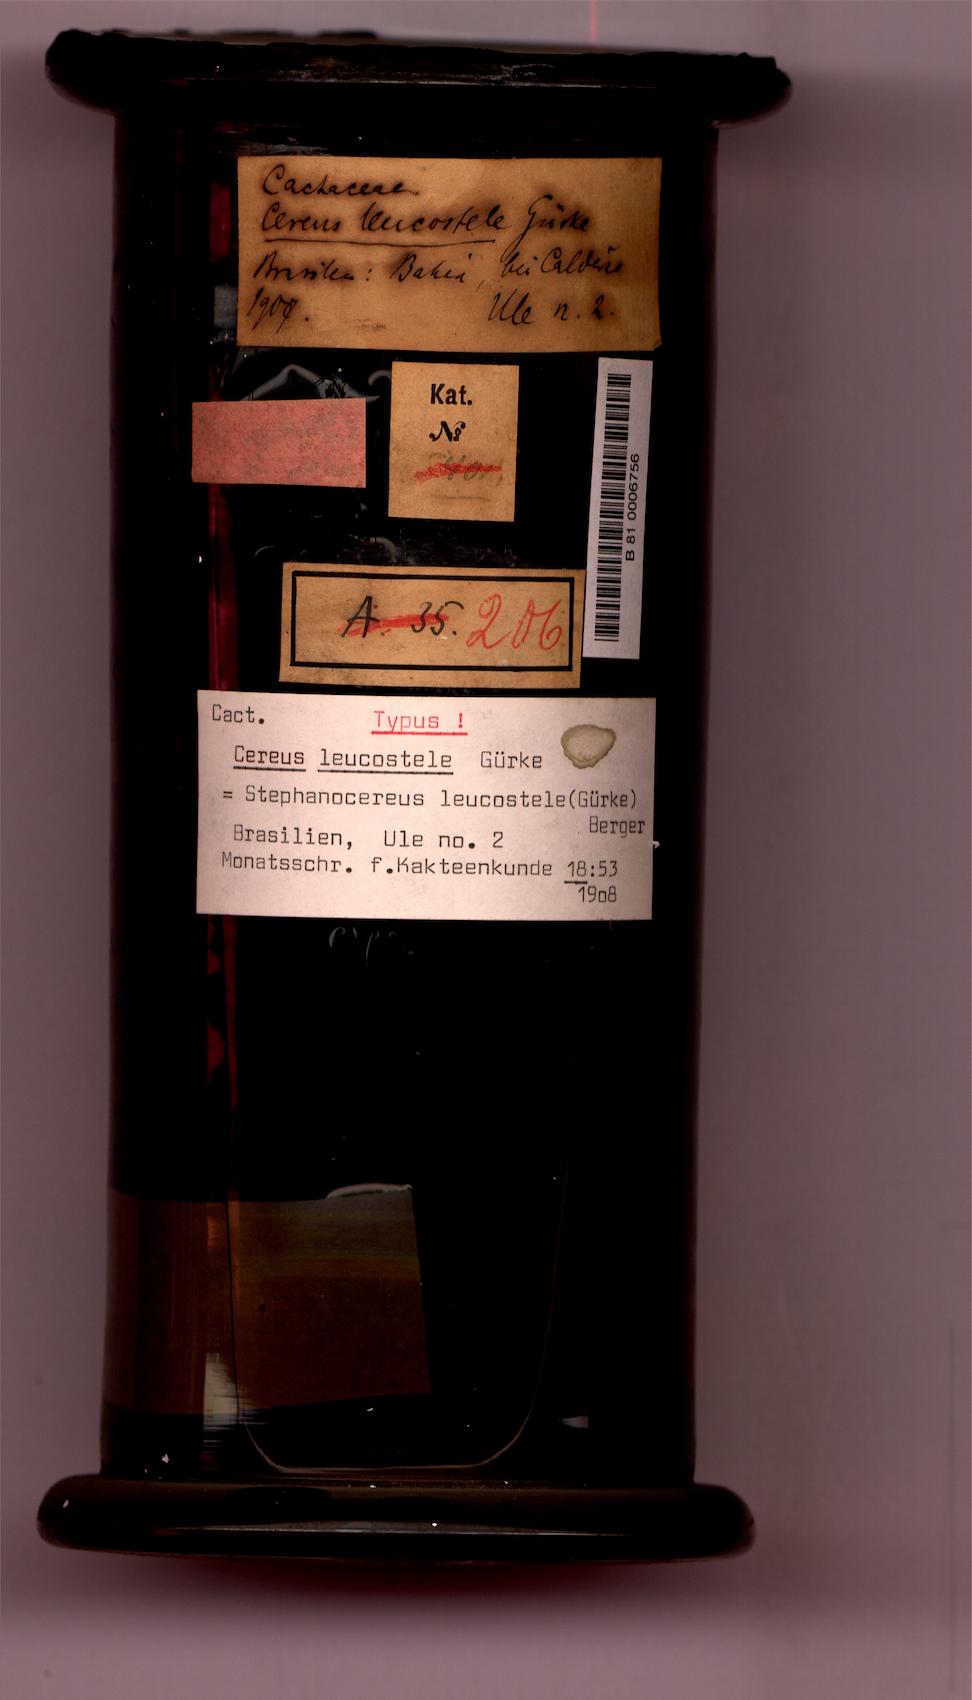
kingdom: Plantae
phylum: Tracheophyta
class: Magnoliopsida
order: Caryophyllales
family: Cactaceae
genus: Arrojadoa
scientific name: Arrojadoa leucostele
